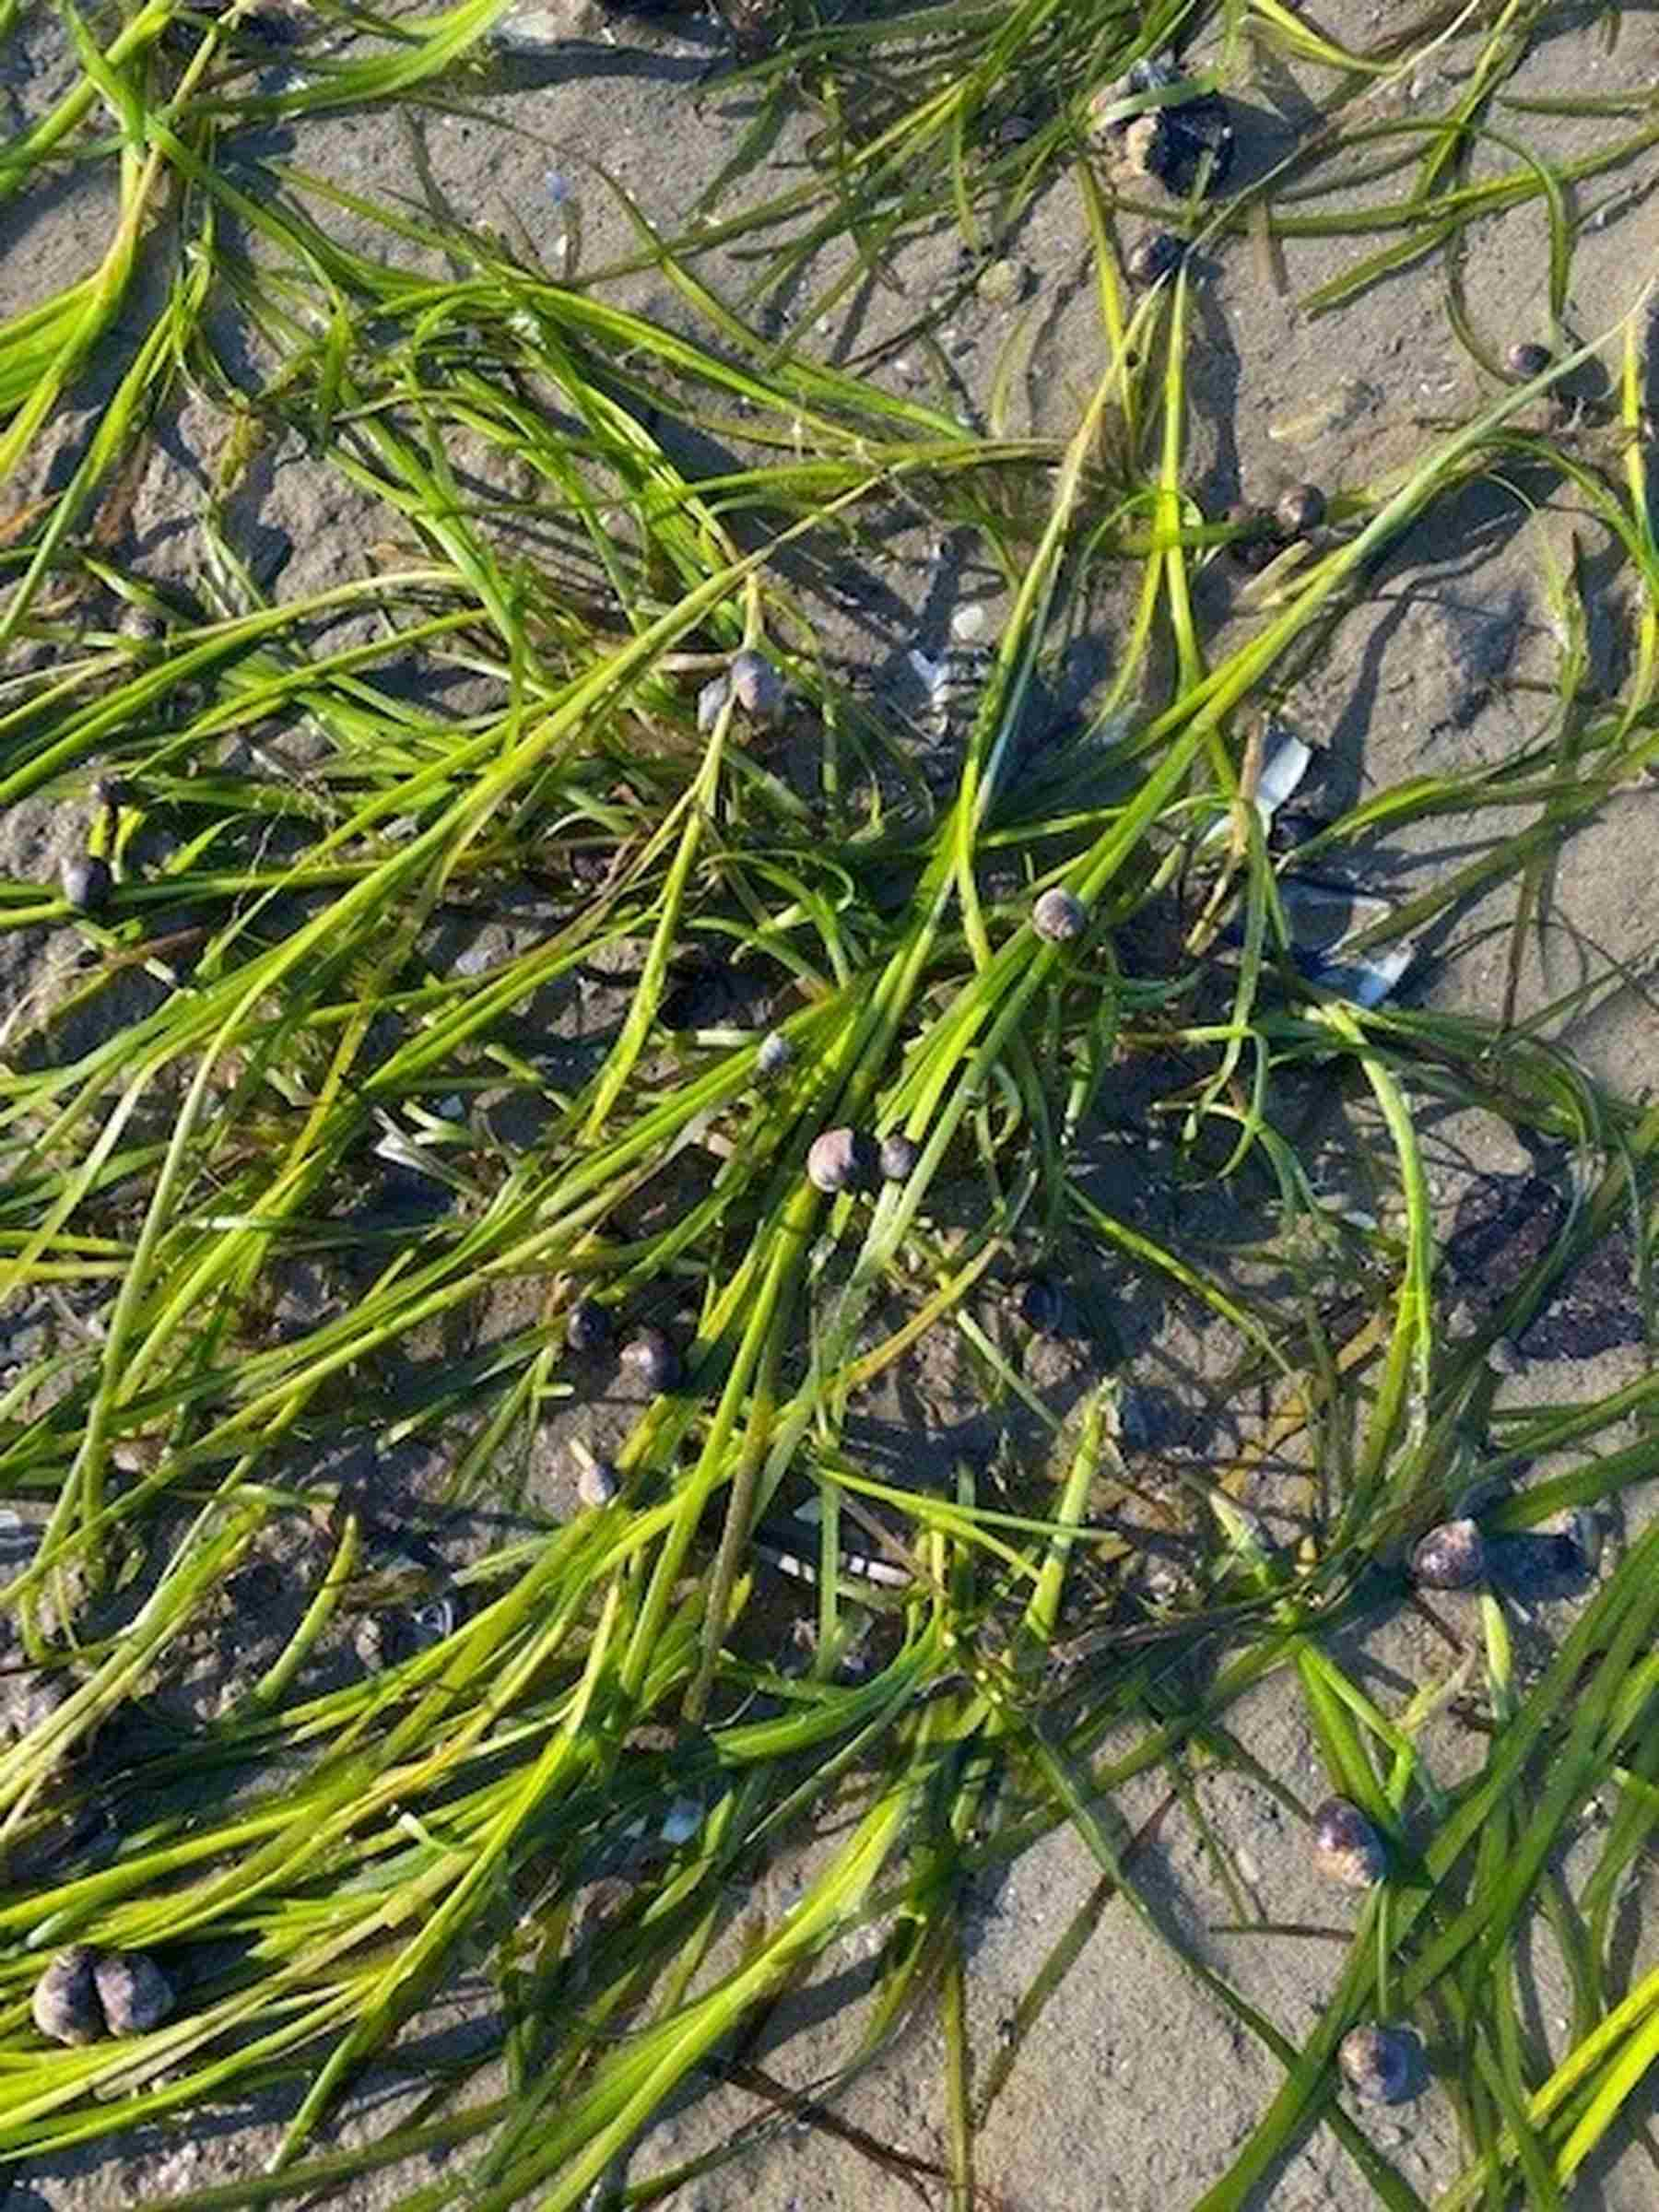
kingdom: Plantae
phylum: Tracheophyta
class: Liliopsida
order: Alismatales
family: Zosteraceae
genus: Zostera
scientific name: Zostera marina
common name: Eelgrass
